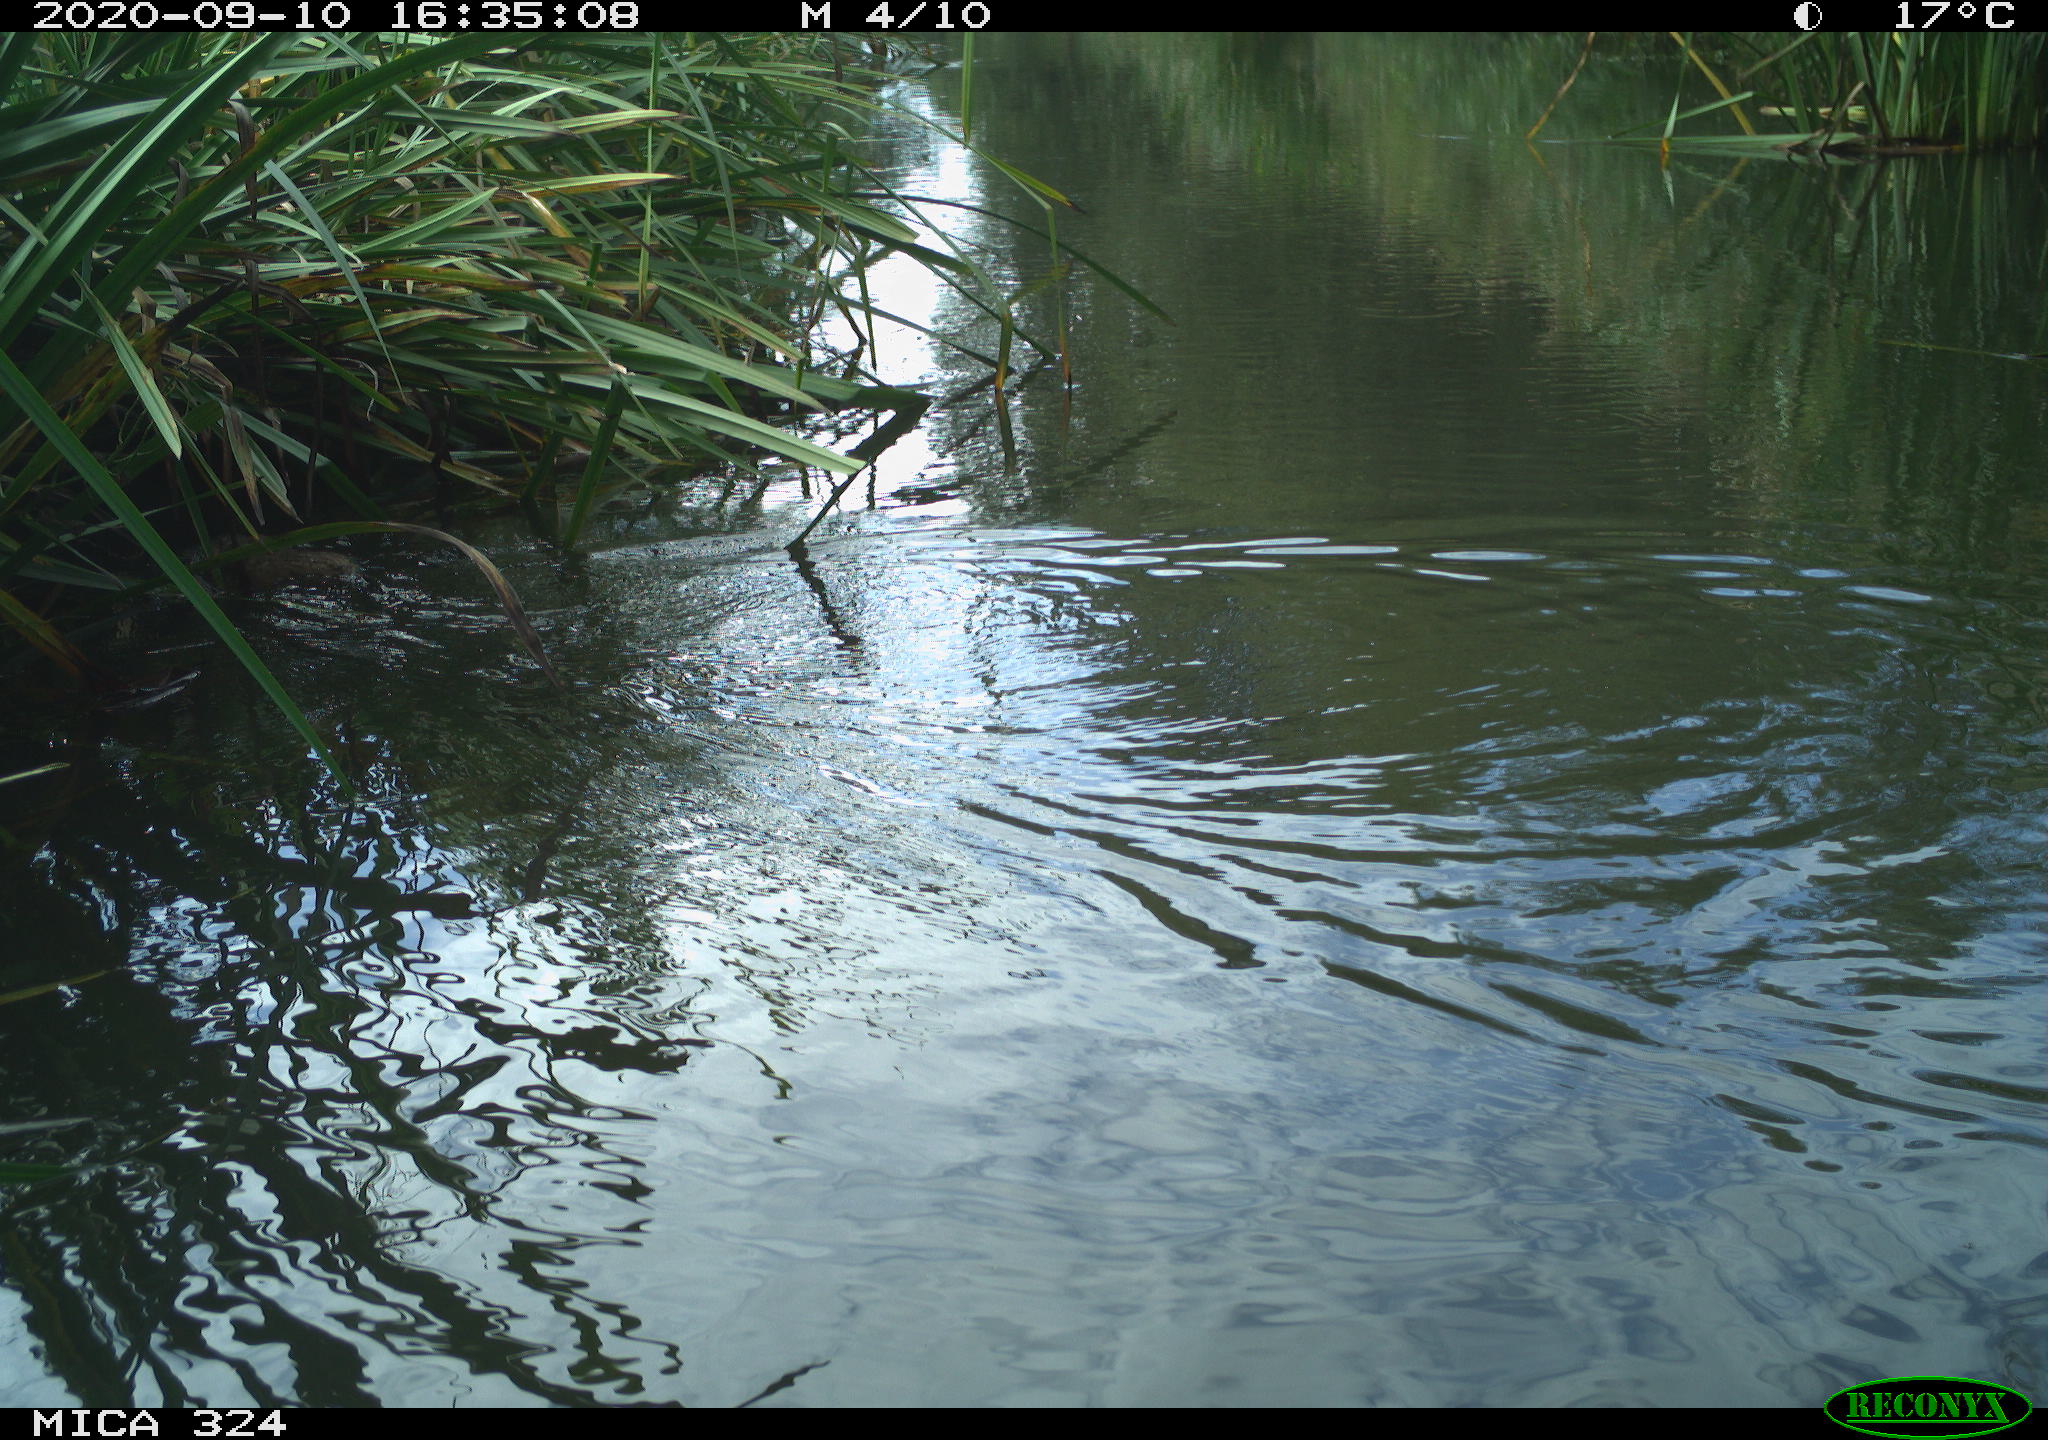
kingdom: Animalia
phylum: Chordata
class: Mammalia
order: Rodentia
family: Cricetidae
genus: Ondatra
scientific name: Ondatra zibethicus
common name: Muskrat
